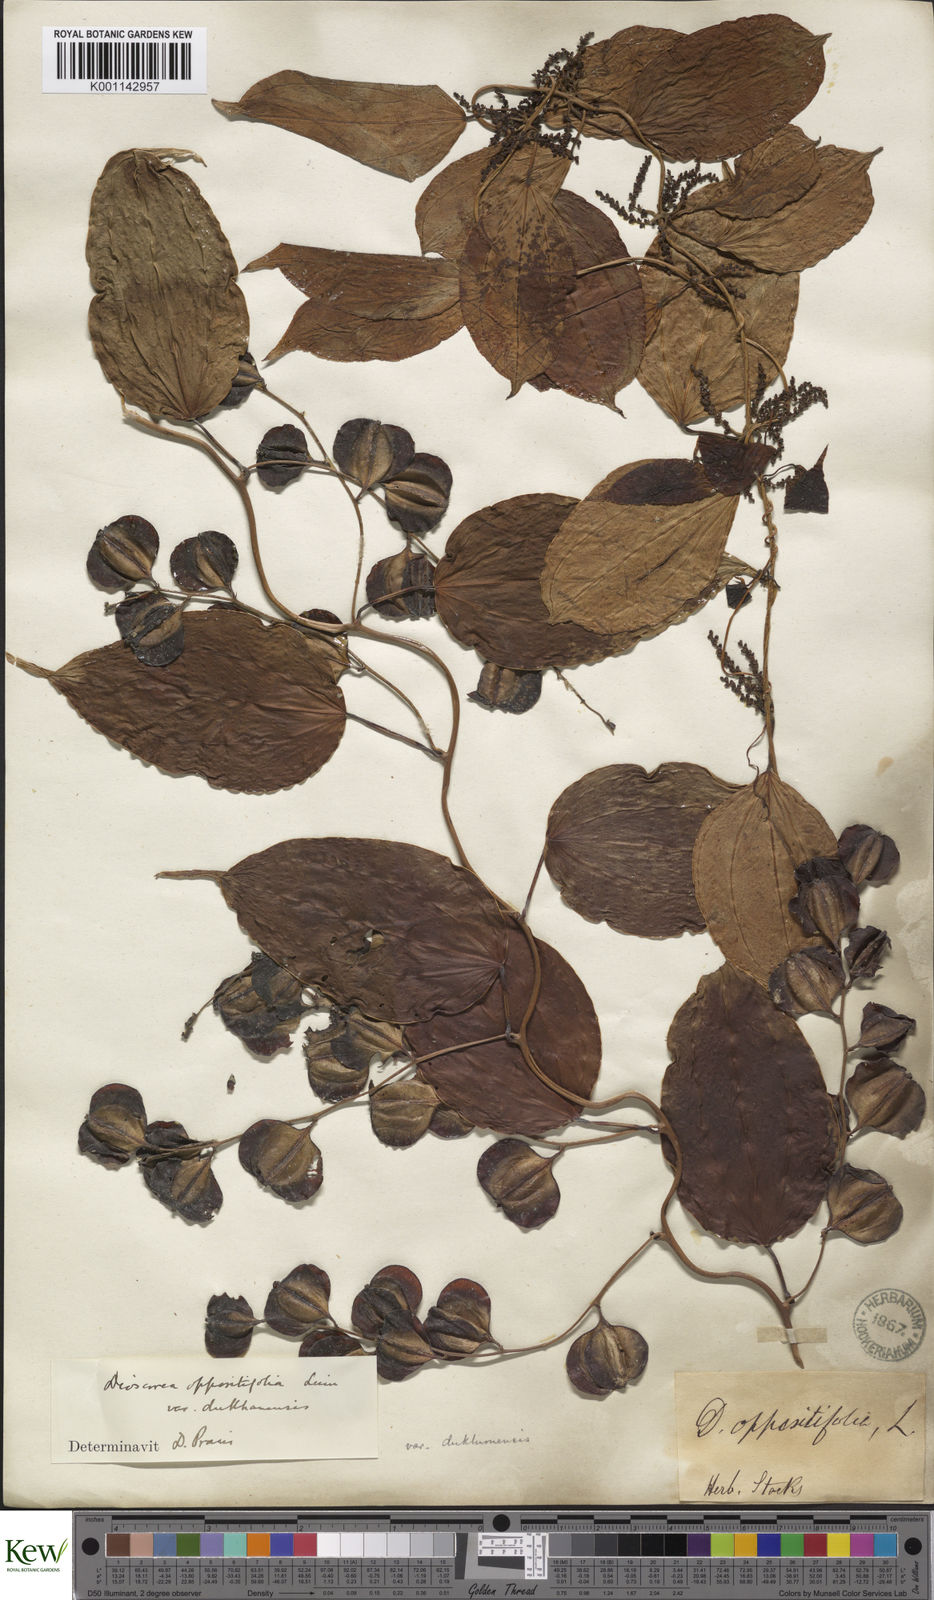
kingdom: Plantae
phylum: Tracheophyta
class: Liliopsida
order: Dioscoreales
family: Dioscoreaceae
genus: Dioscorea
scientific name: Dioscorea oppositifolia
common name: Chinese yam
